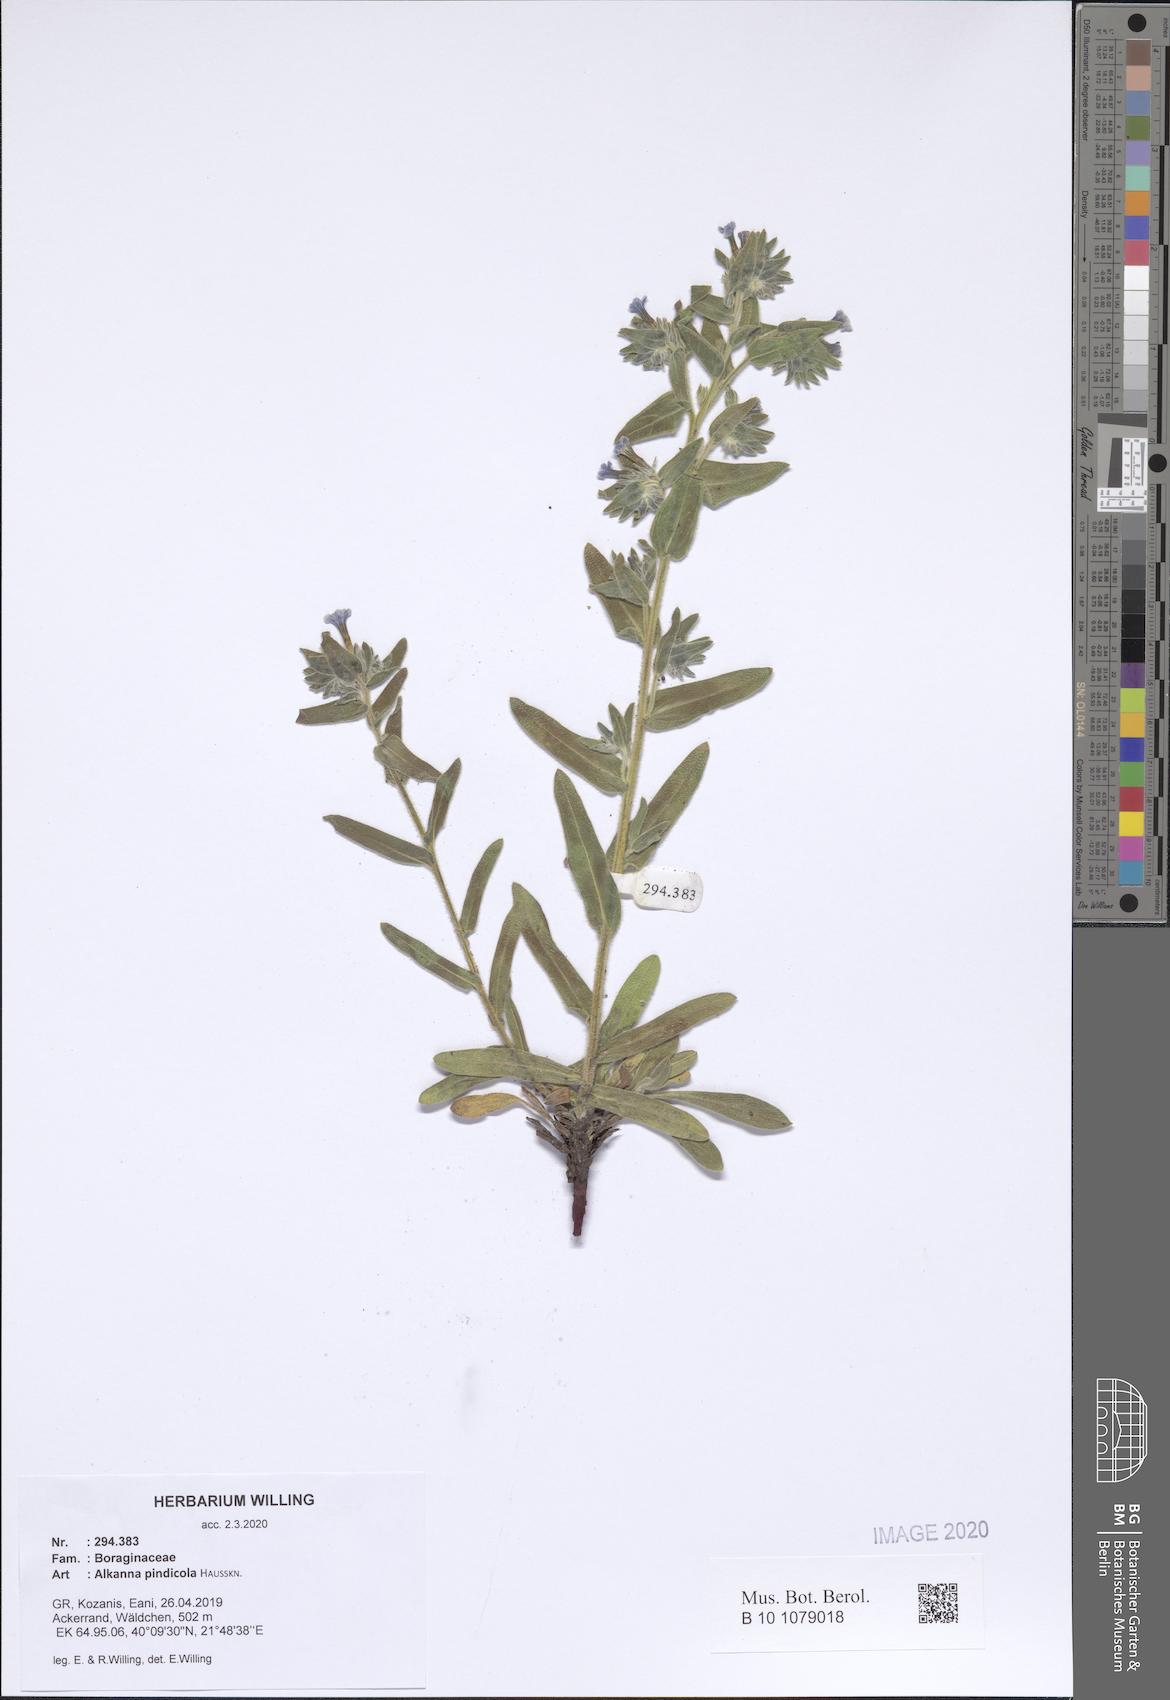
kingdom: Plantae
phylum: Tracheophyta
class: Magnoliopsida
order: Boraginales
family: Boraginaceae
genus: Alkanna
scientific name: Alkanna pindicola
